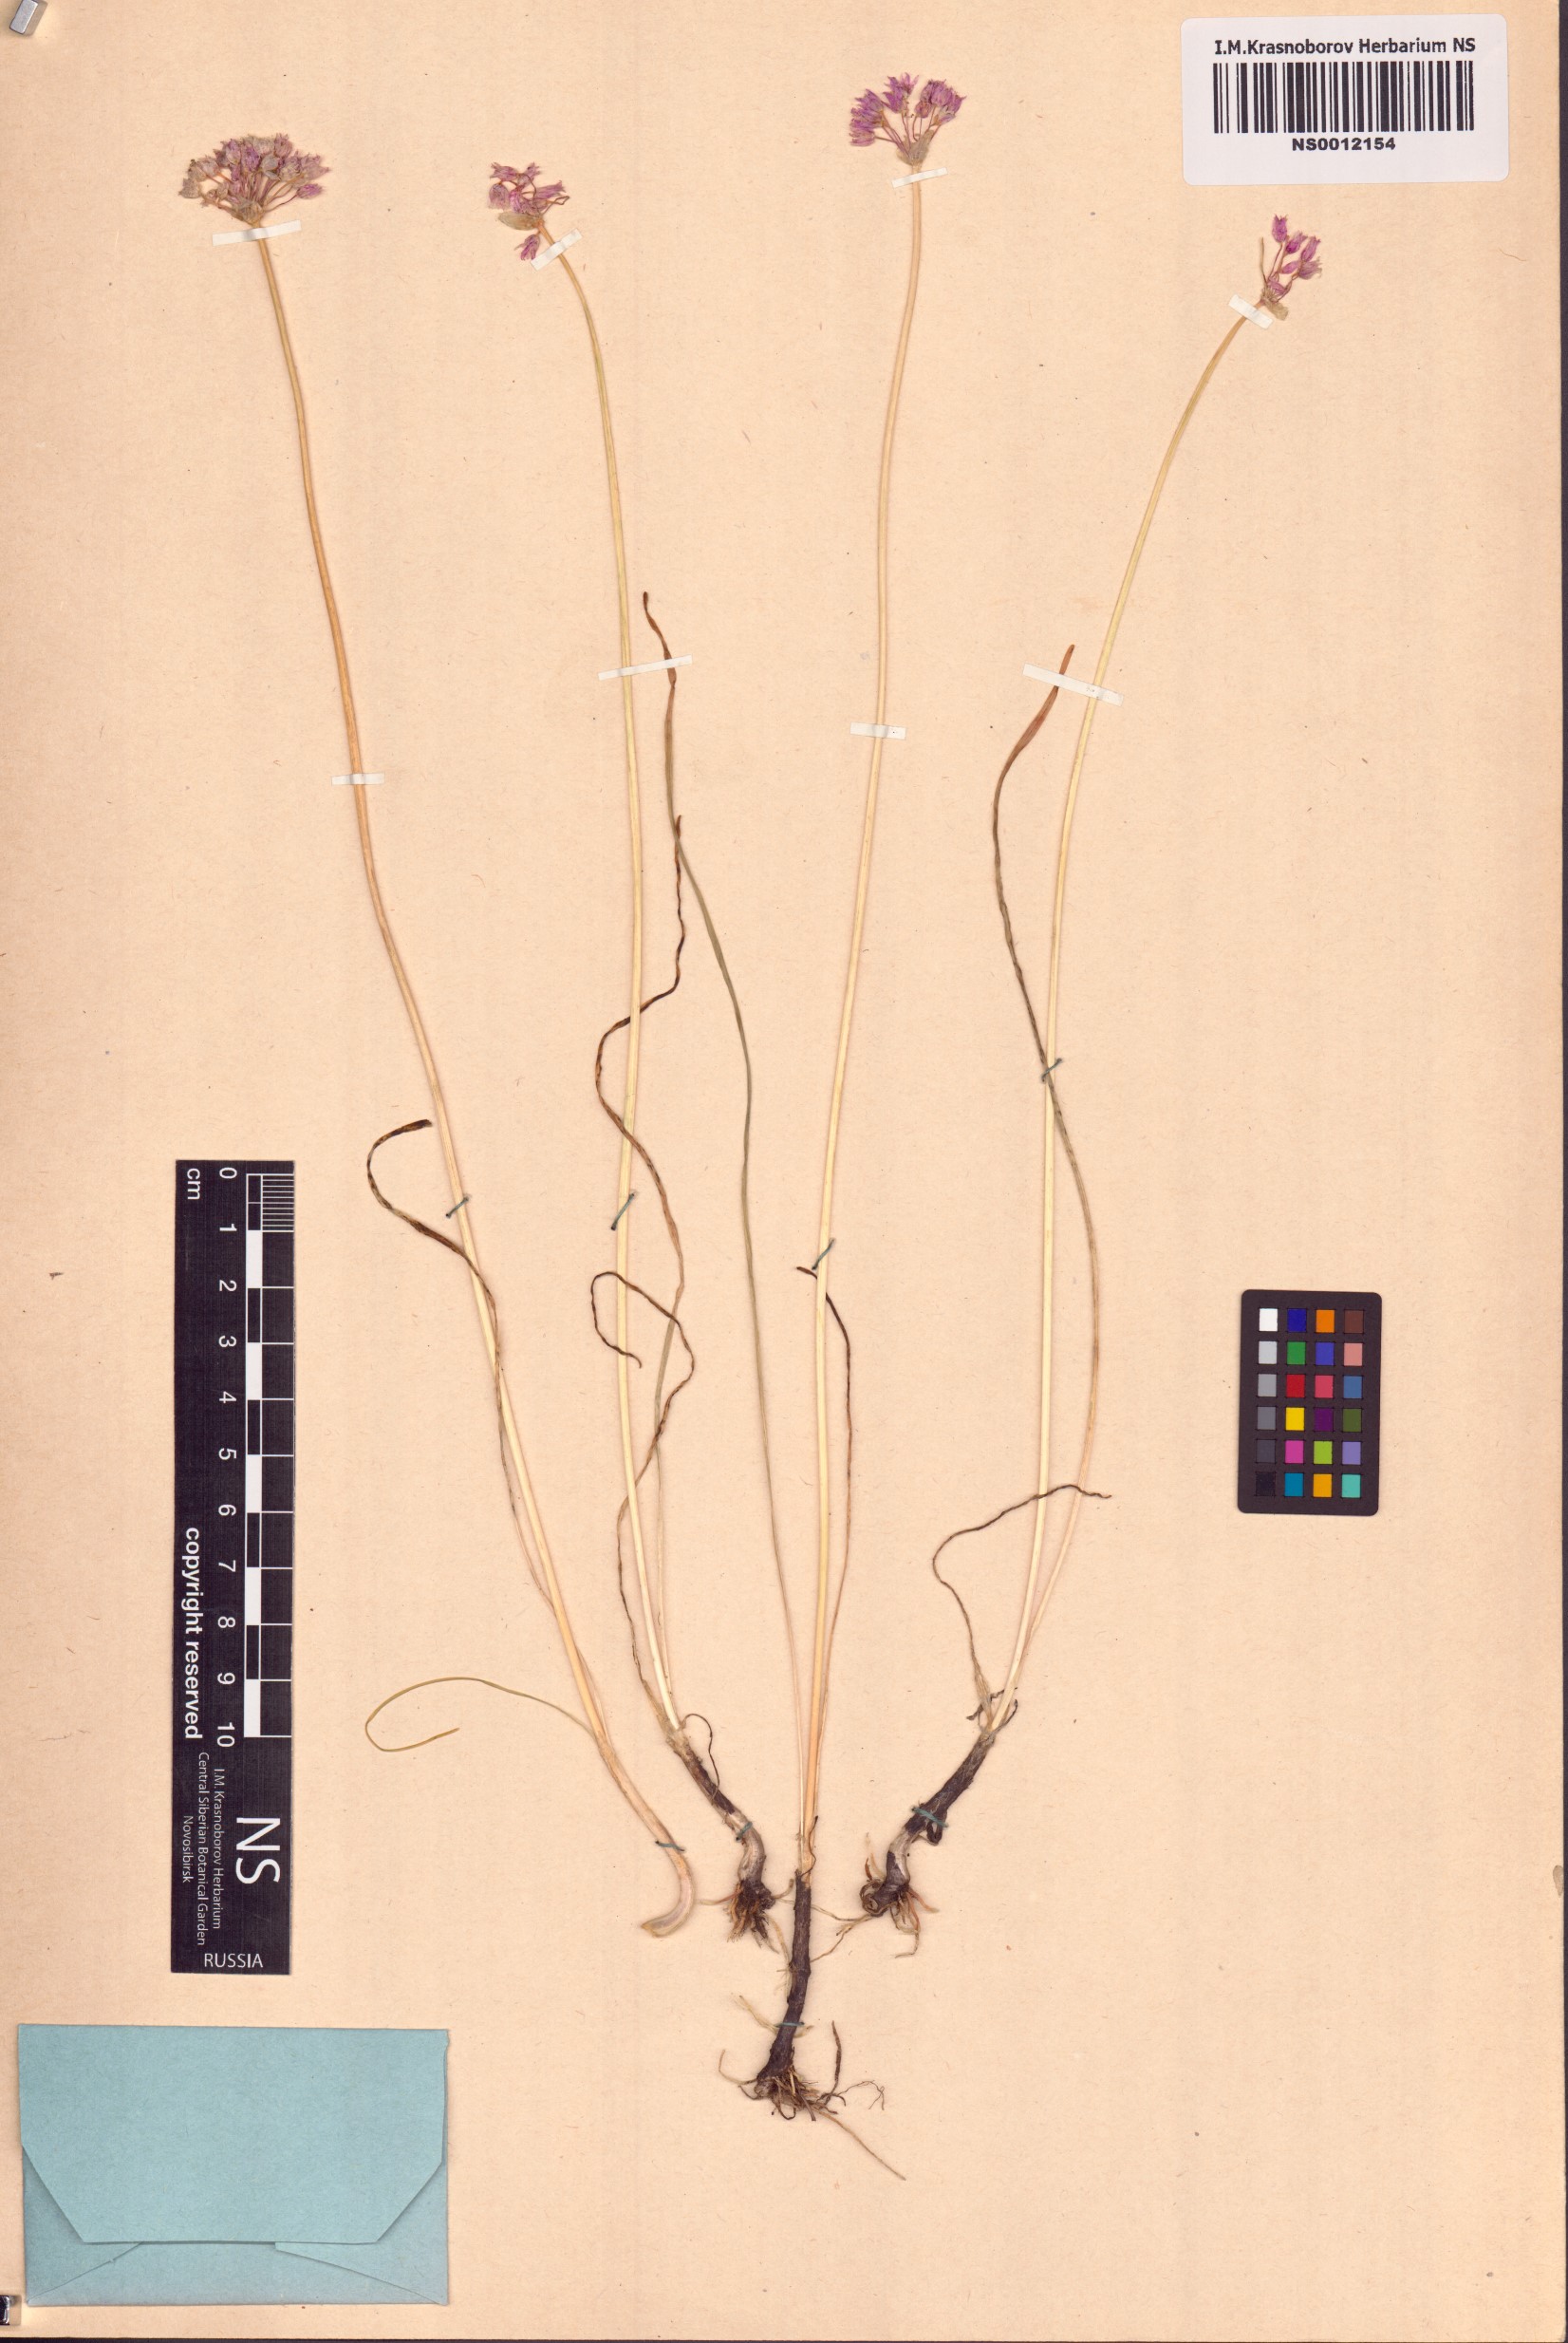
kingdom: Plantae
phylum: Tracheophyta
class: Liliopsida
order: Asparagales
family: Amaryllidaceae
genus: Allium
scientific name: Allium angulosum
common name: Mouse garlic
